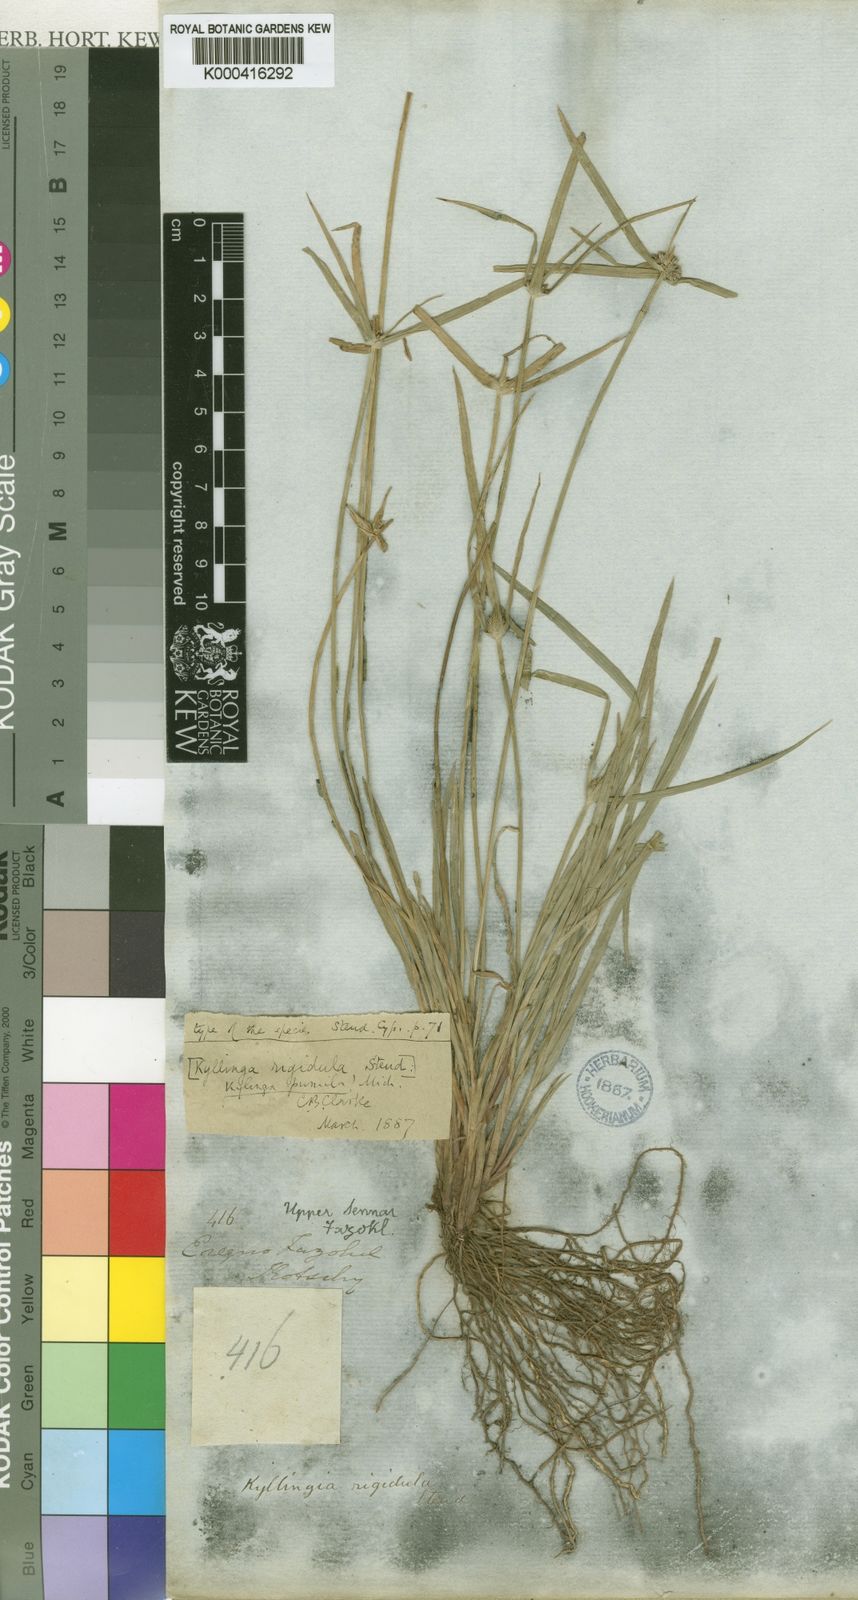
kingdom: Plantae
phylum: Tracheophyta
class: Liliopsida
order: Poales
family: Cyperaceae
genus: Cyperus
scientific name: Cyperus hortensis
